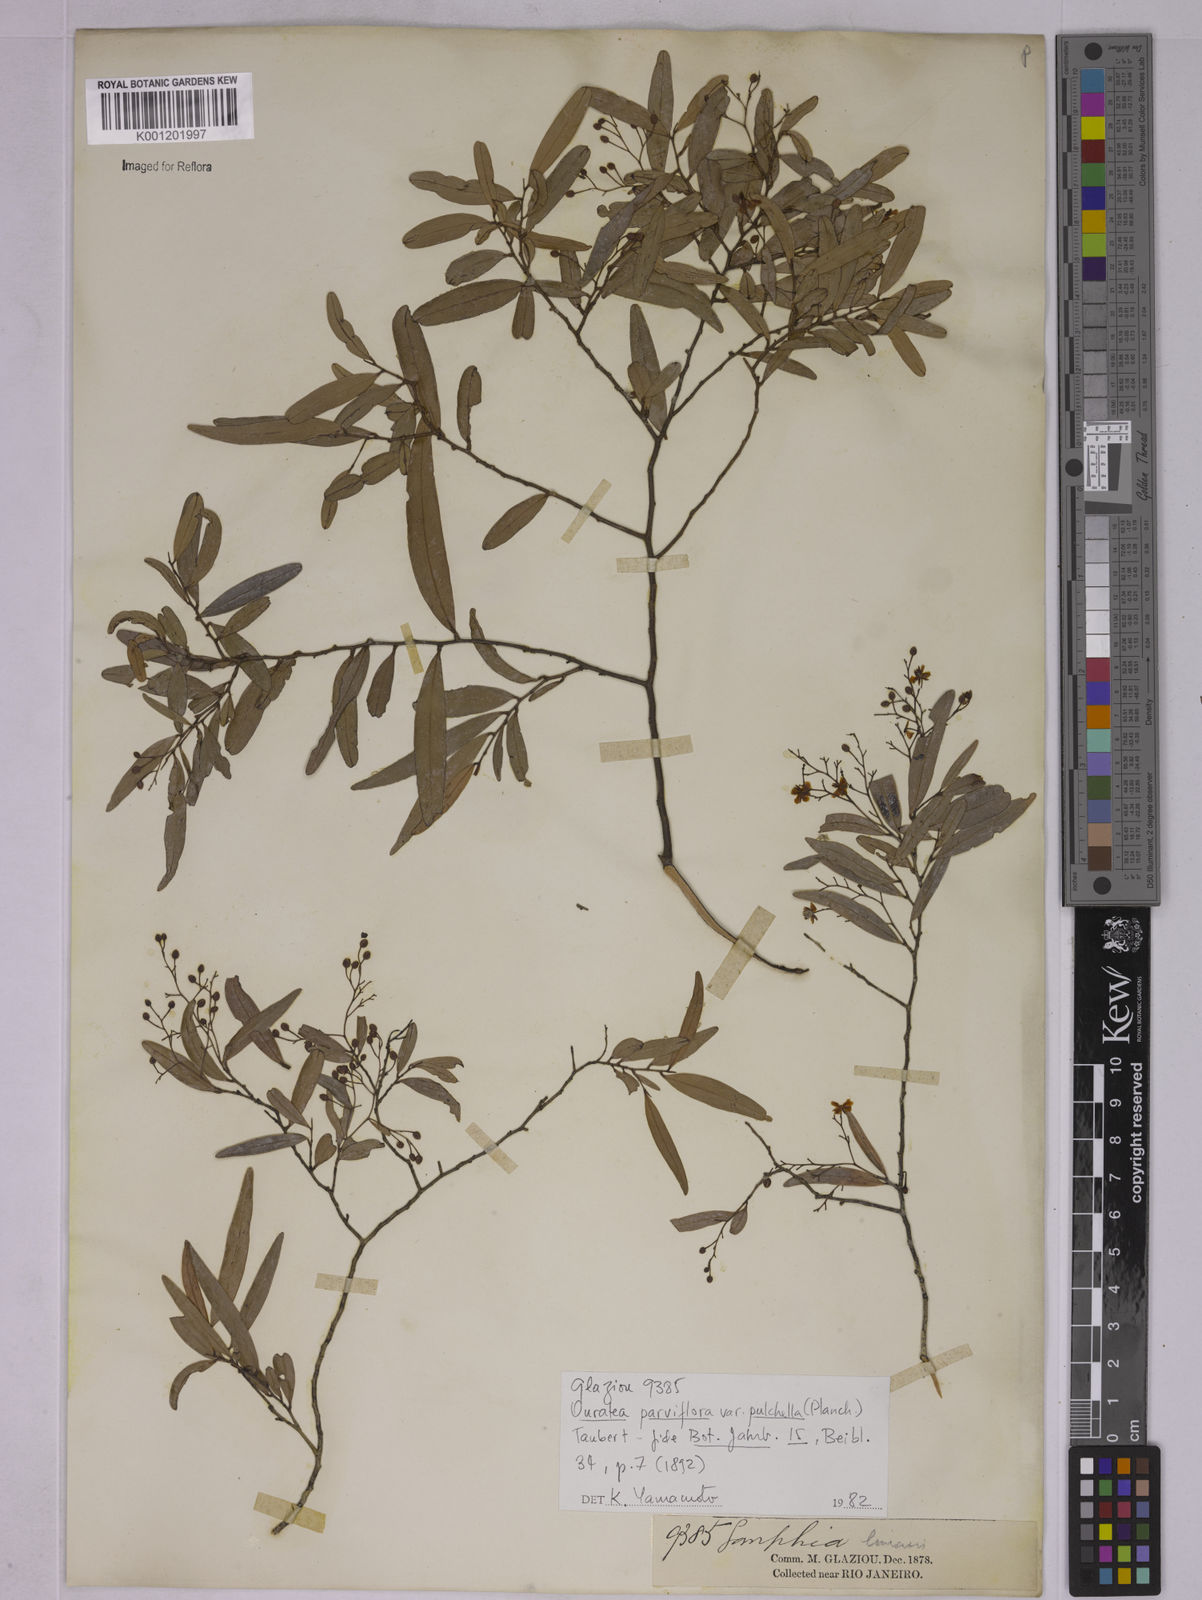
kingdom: Plantae
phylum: Tracheophyta
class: Magnoliopsida
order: Malpighiales
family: Ochnaceae
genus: Ouratea
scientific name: Ouratea parviflora
